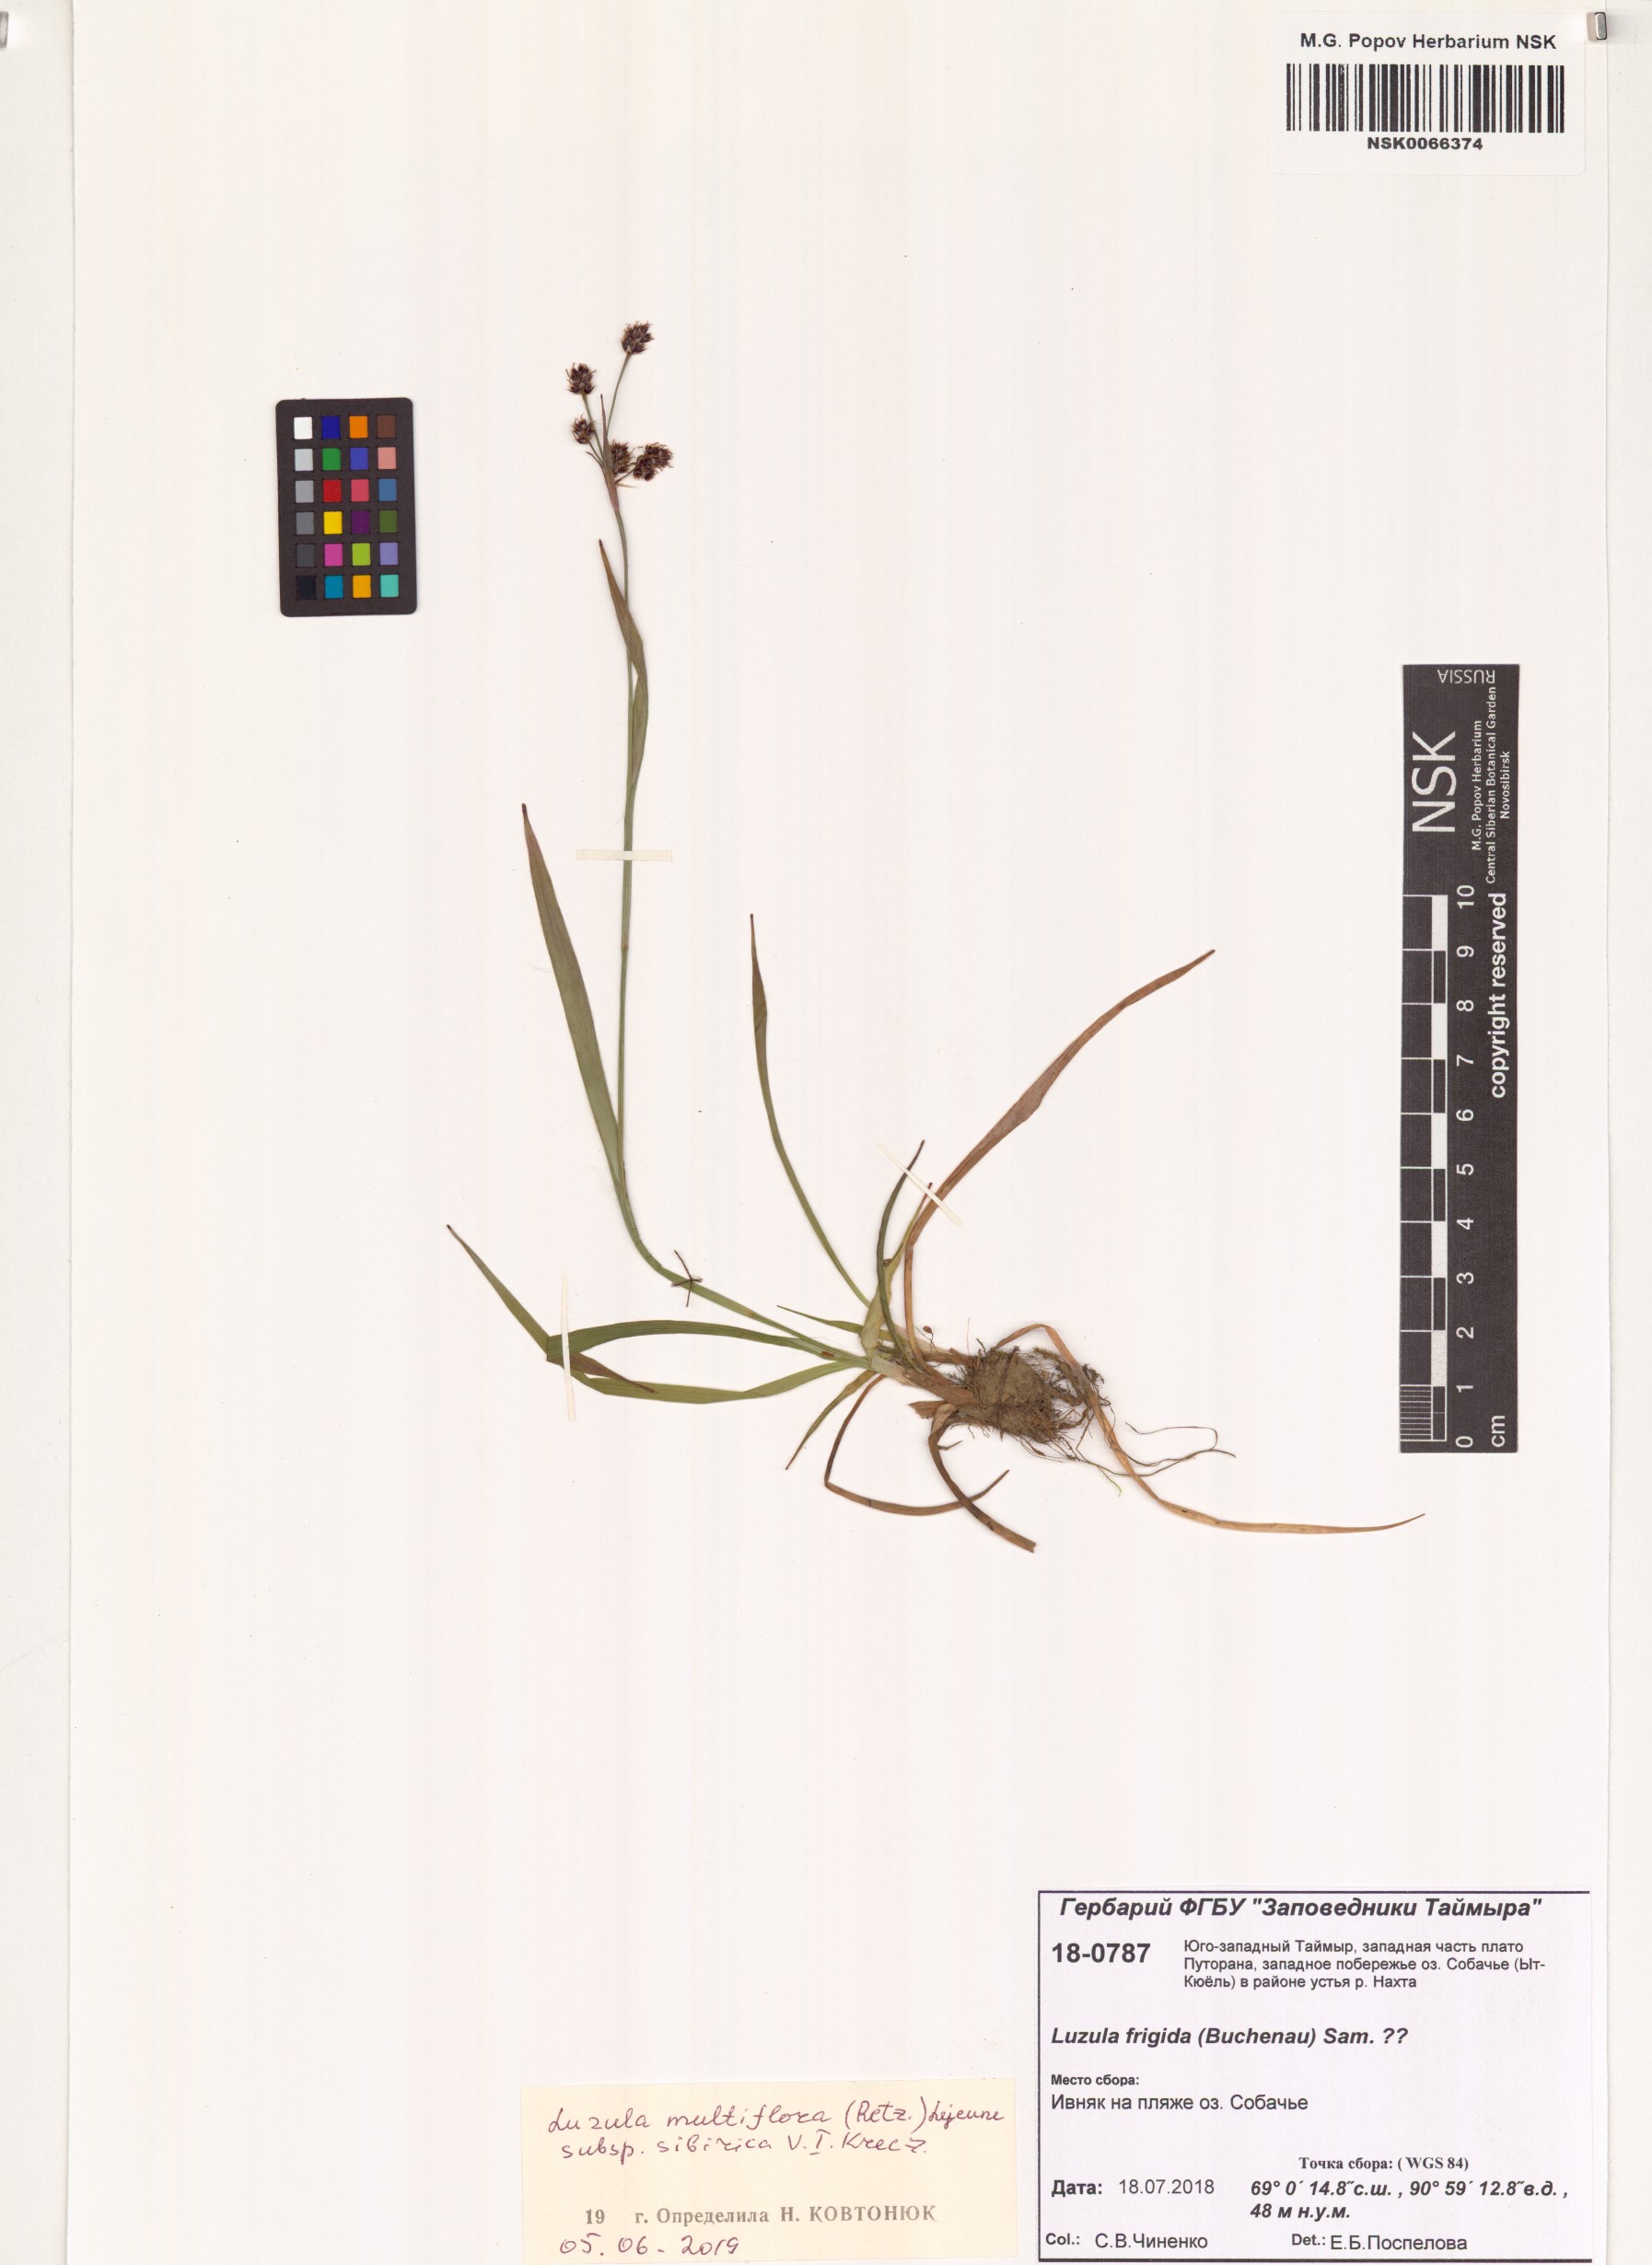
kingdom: Plantae
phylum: Tracheophyta
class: Liliopsida
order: Poales
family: Juncaceae
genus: Luzula
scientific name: Luzula multiflora
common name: Heath wood-rush
